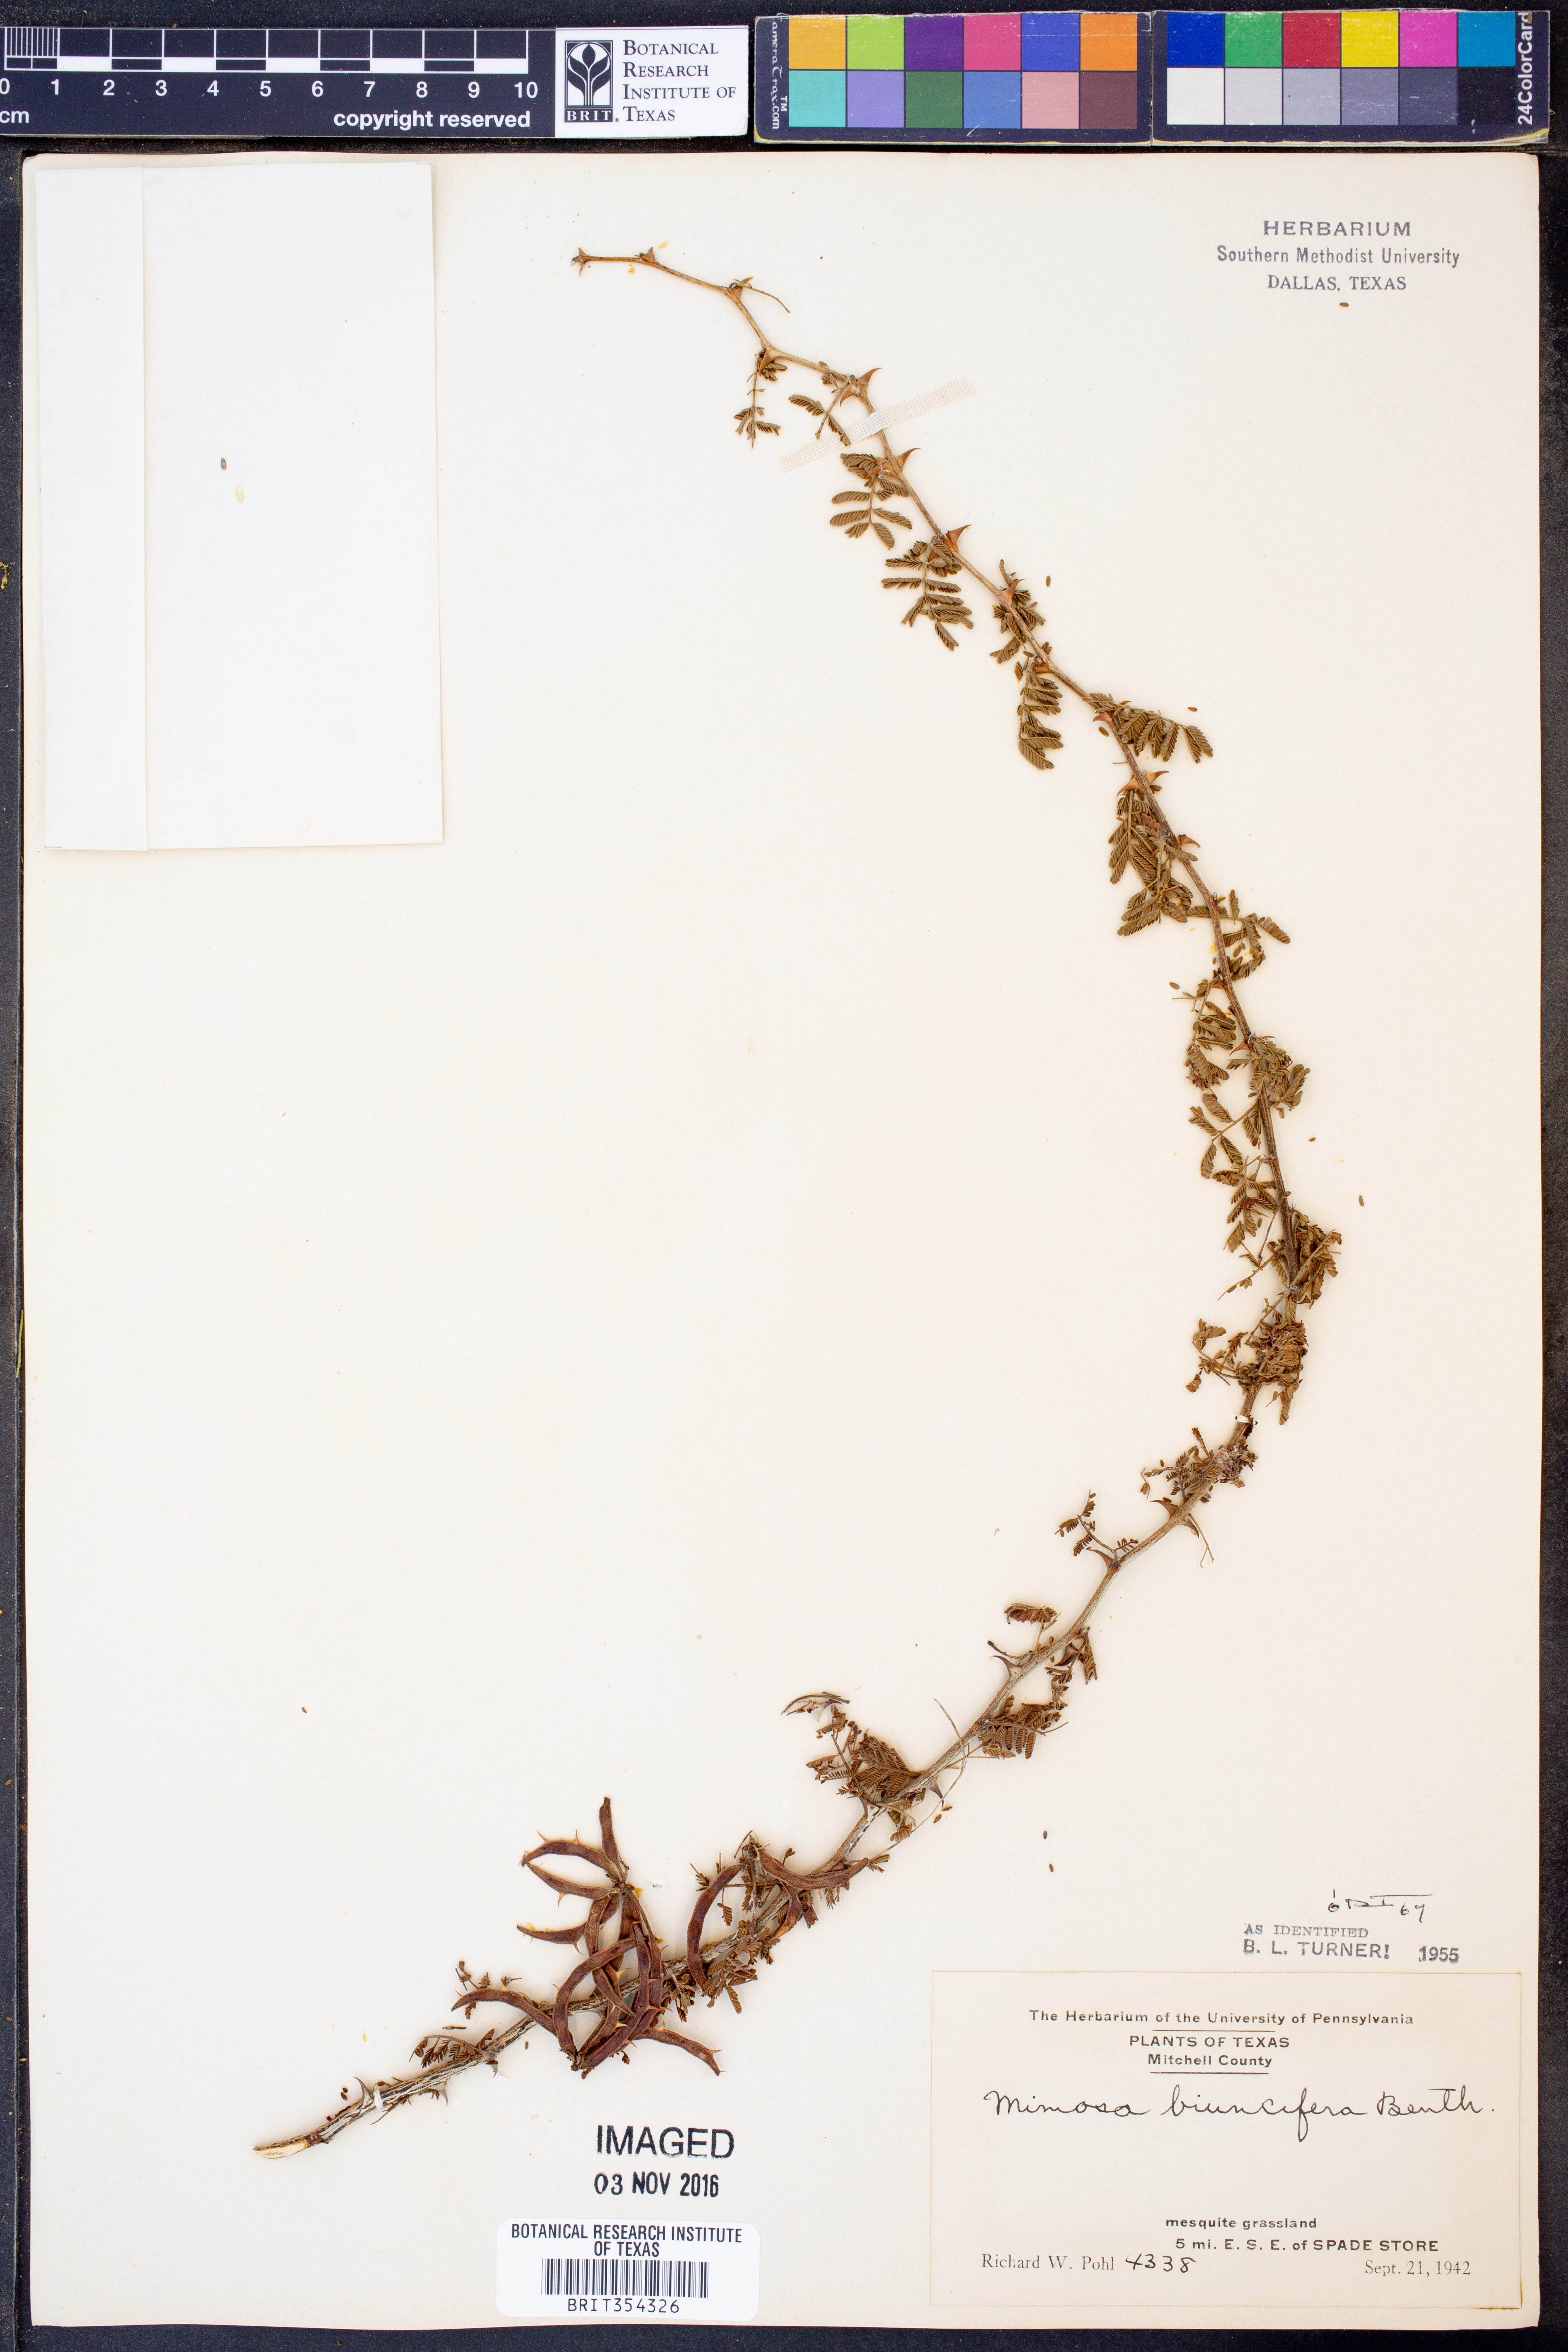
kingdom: Plantae
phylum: Tracheophyta
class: Magnoliopsida
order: Fabales
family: Fabaceae
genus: Mimosa
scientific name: Mimosa biuncifera
